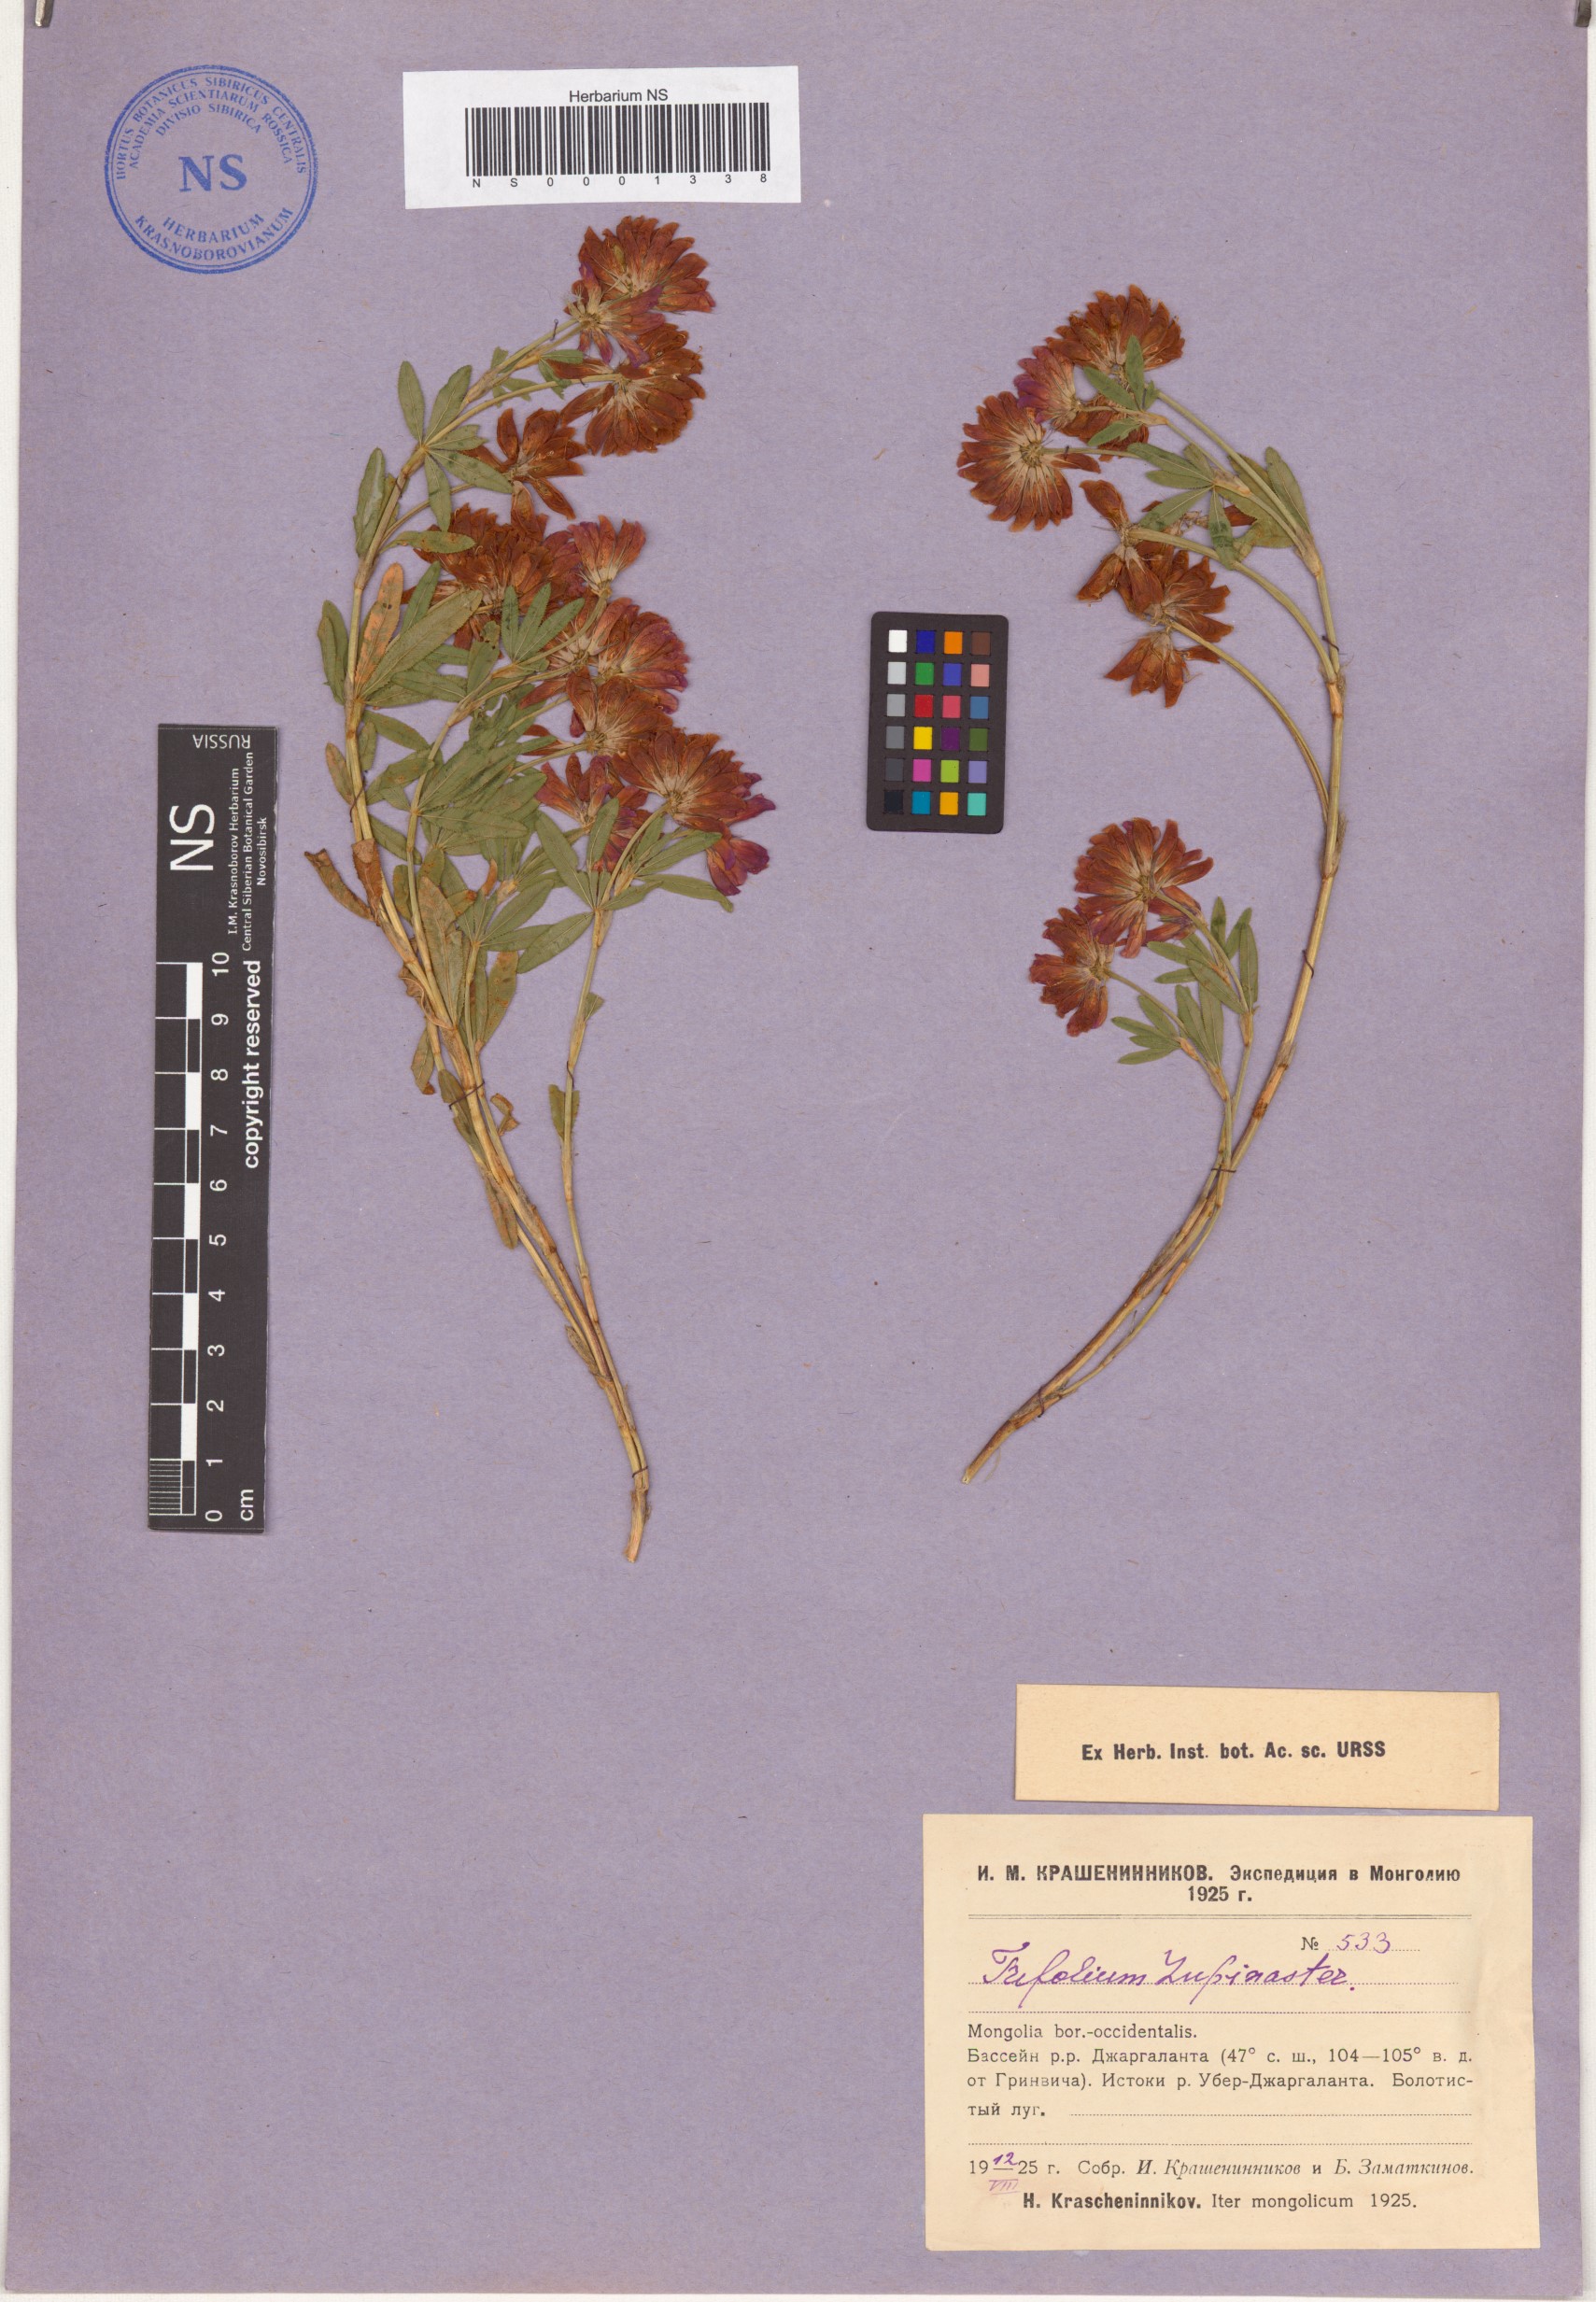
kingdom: Plantae
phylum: Tracheophyta
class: Magnoliopsida
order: Fabales
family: Fabaceae
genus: Trifolium
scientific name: Trifolium lupinaster
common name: Lupine clover
